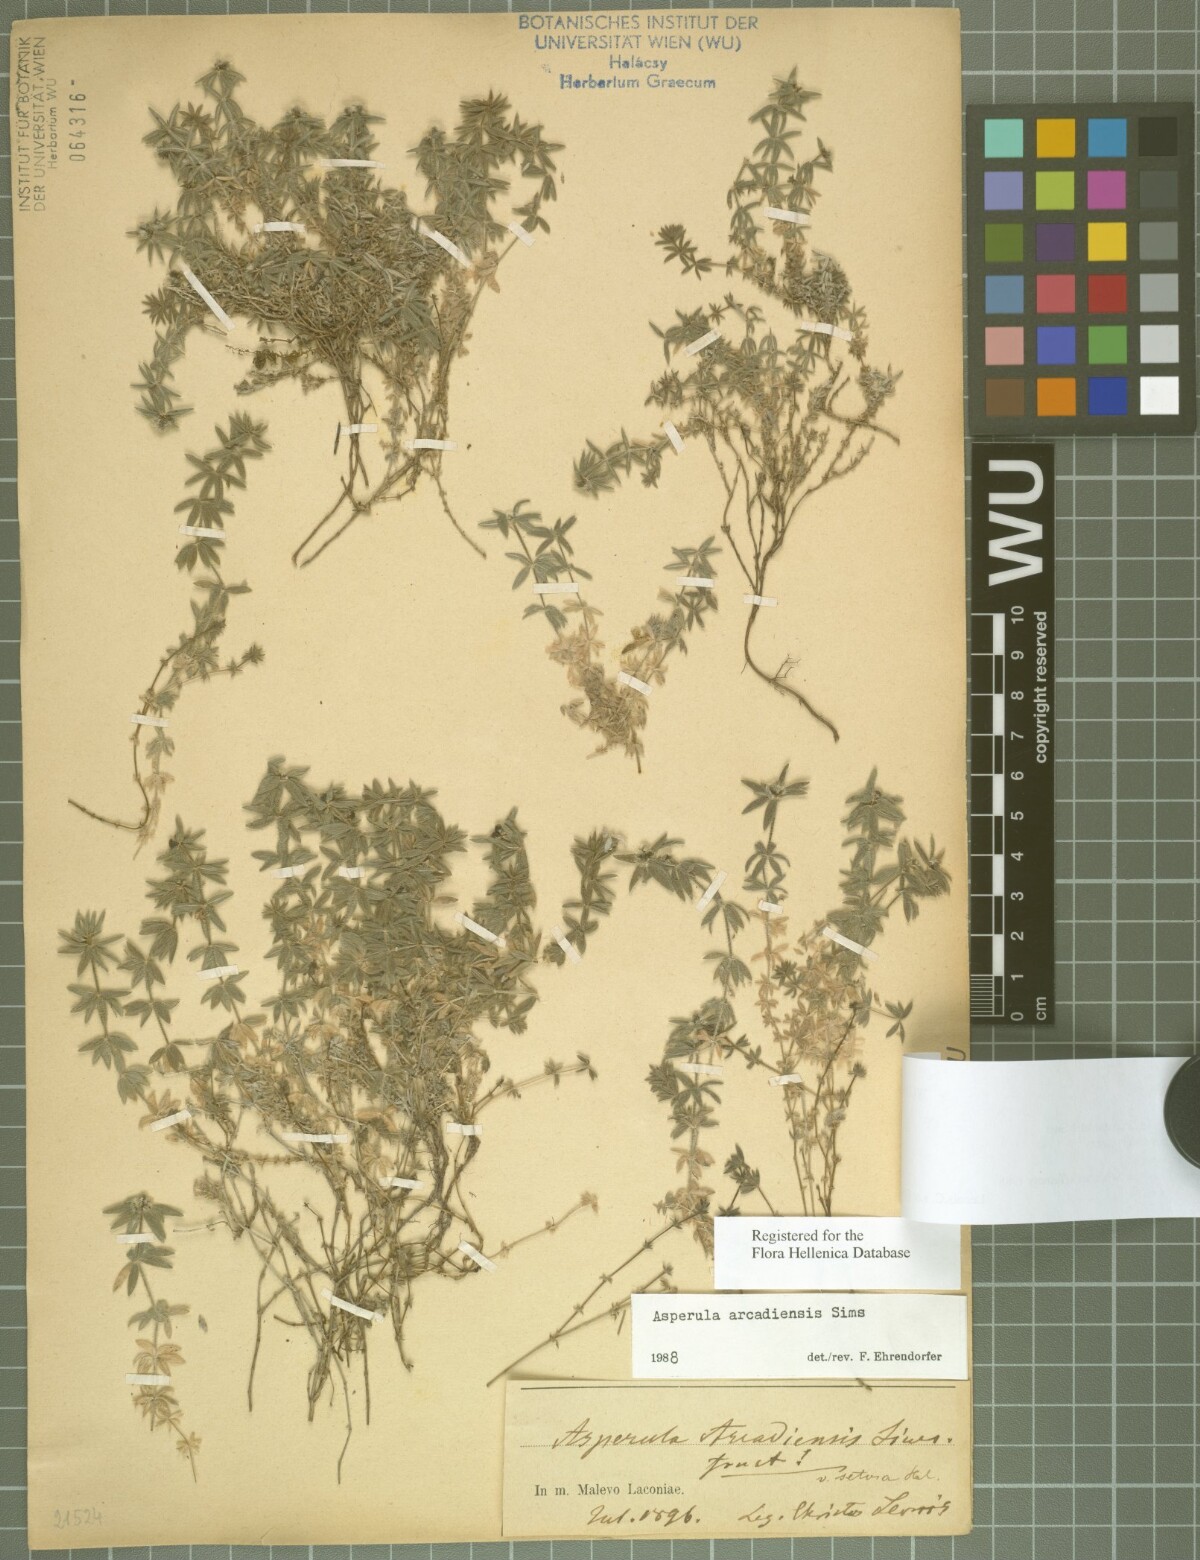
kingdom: Plantae
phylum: Tracheophyta
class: Magnoliopsida
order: Gentianales
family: Rubiaceae
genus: Hexaphylla
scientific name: Hexaphylla arcadiensis
